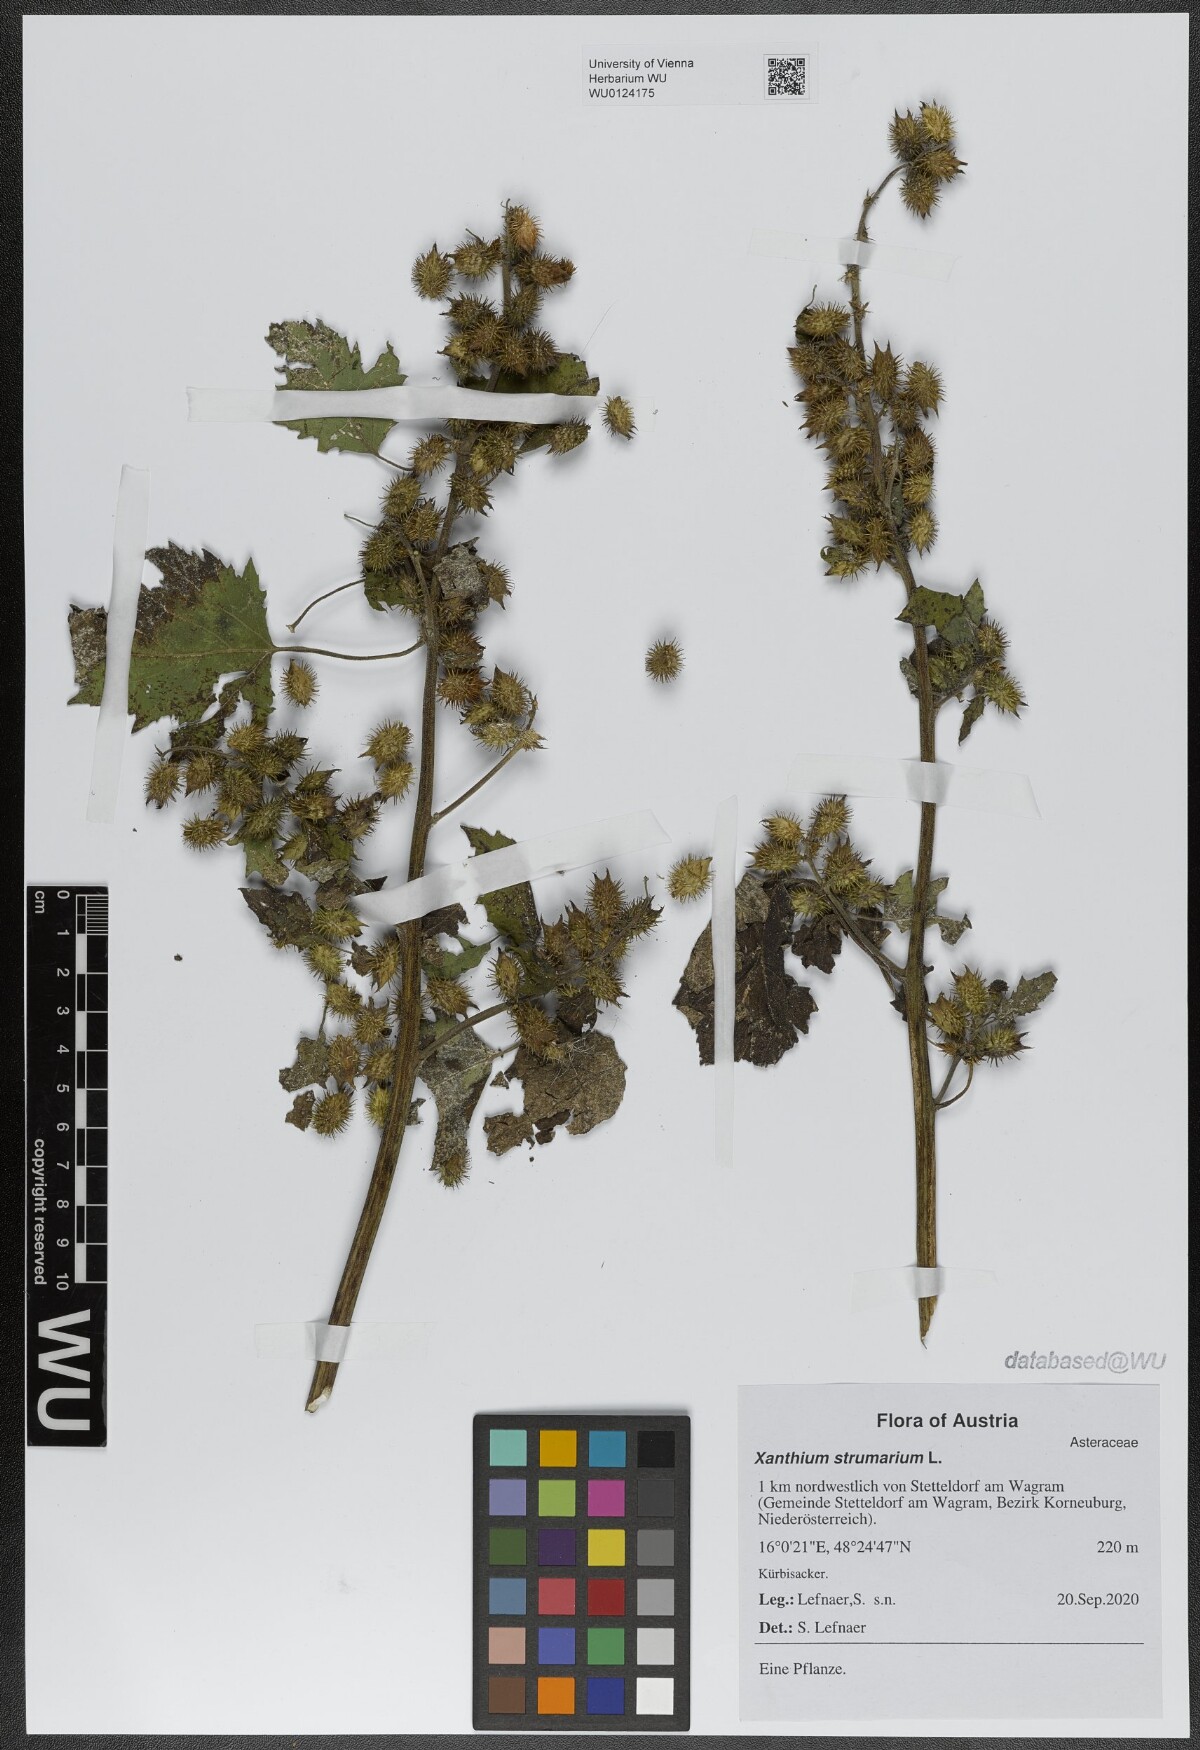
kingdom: Plantae
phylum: Tracheophyta
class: Magnoliopsida
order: Asterales
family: Asteraceae
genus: Xanthium
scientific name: Xanthium strumarium
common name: Rough cocklebur
